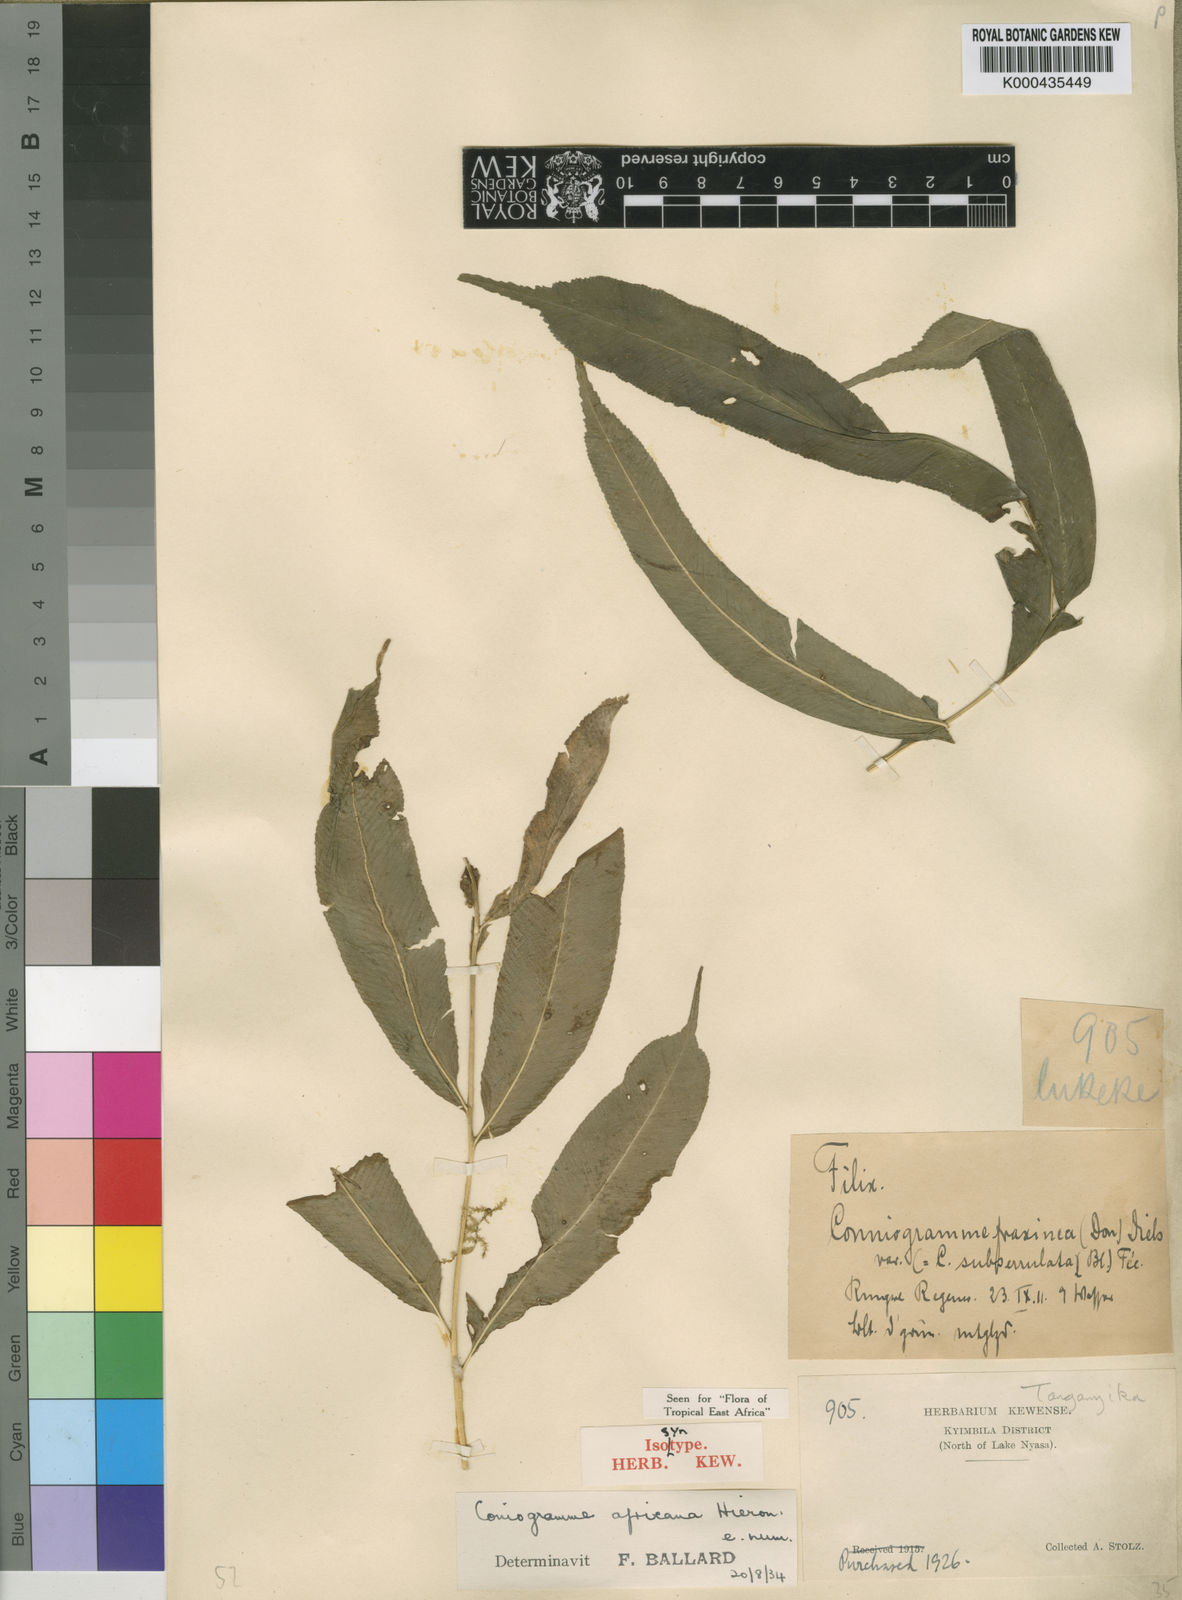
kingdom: Plantae
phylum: Tracheophyta
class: Polypodiopsida
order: Polypodiales
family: Pteridaceae
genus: Coniogramme
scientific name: Coniogramme africana
